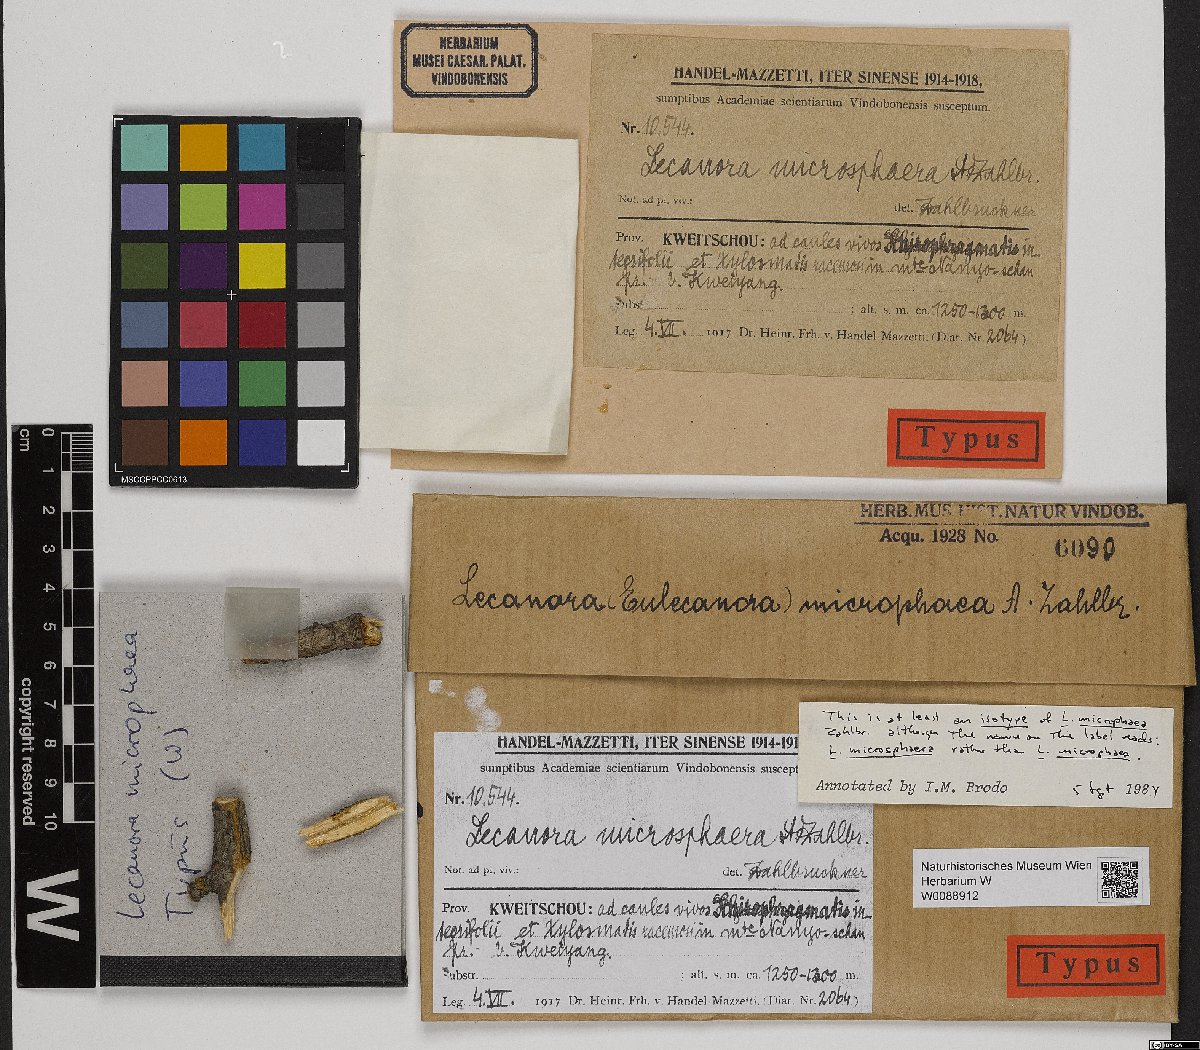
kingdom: Fungi
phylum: Ascomycota
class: Lecanoromycetes
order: Lecanorales
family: Lecanoraceae
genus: Lecanora
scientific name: Lecanora microphaea
